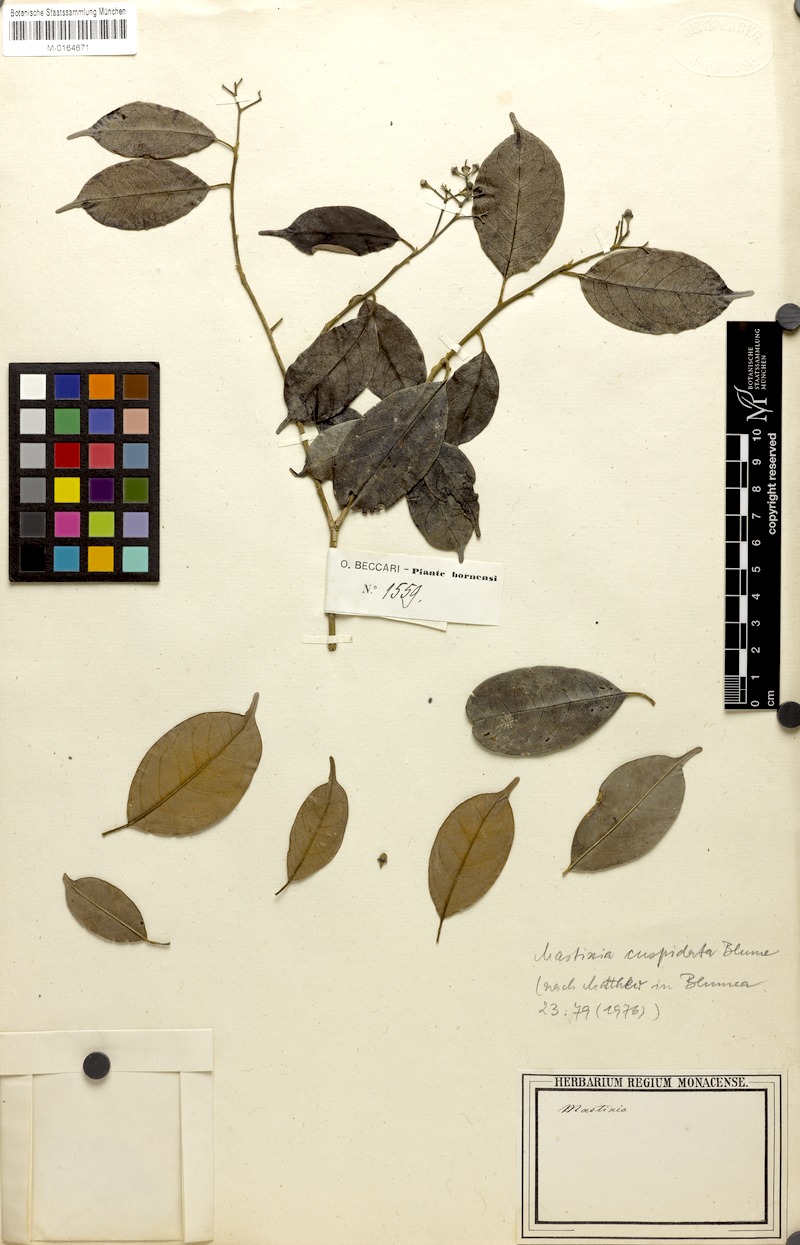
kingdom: Plantae
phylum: Tracheophyta
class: Magnoliopsida
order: Cornales
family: Nyssaceae
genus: Mastixia
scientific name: Mastixia cuspidata
